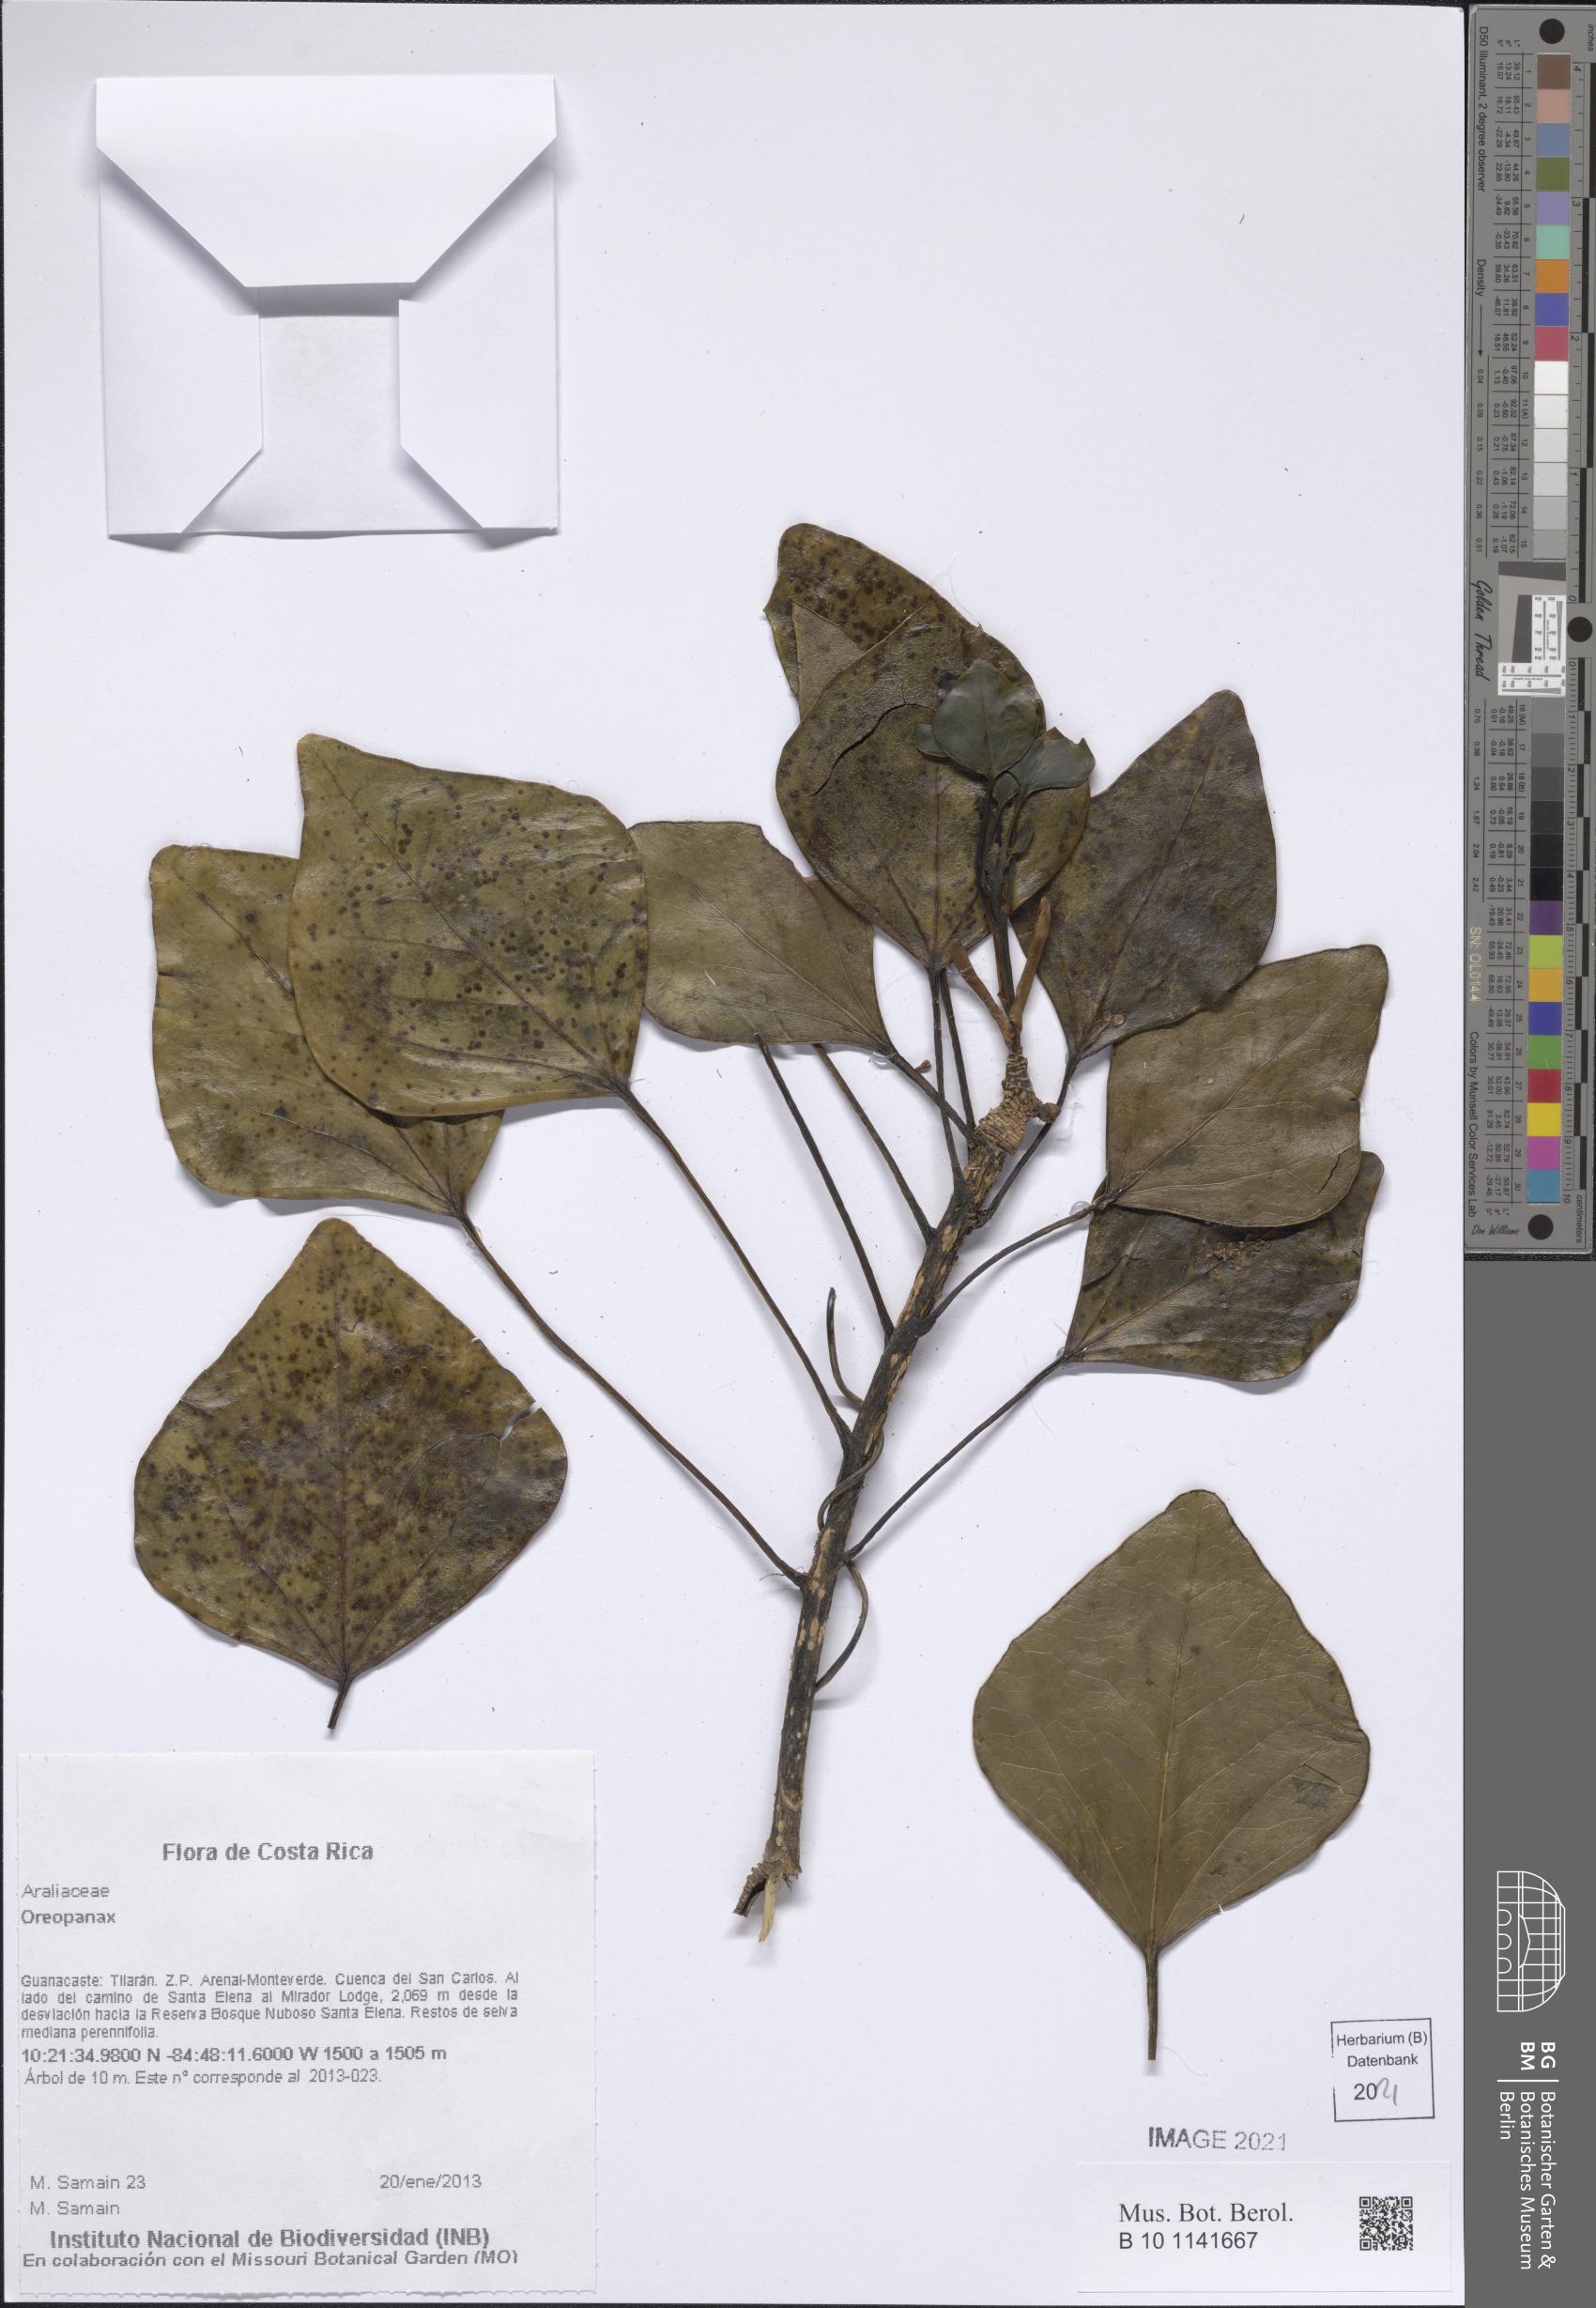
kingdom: Plantae
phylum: Tracheophyta
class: Magnoliopsida
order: Apiales
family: Araliaceae
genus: Oreopanax
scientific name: Oreopanax
